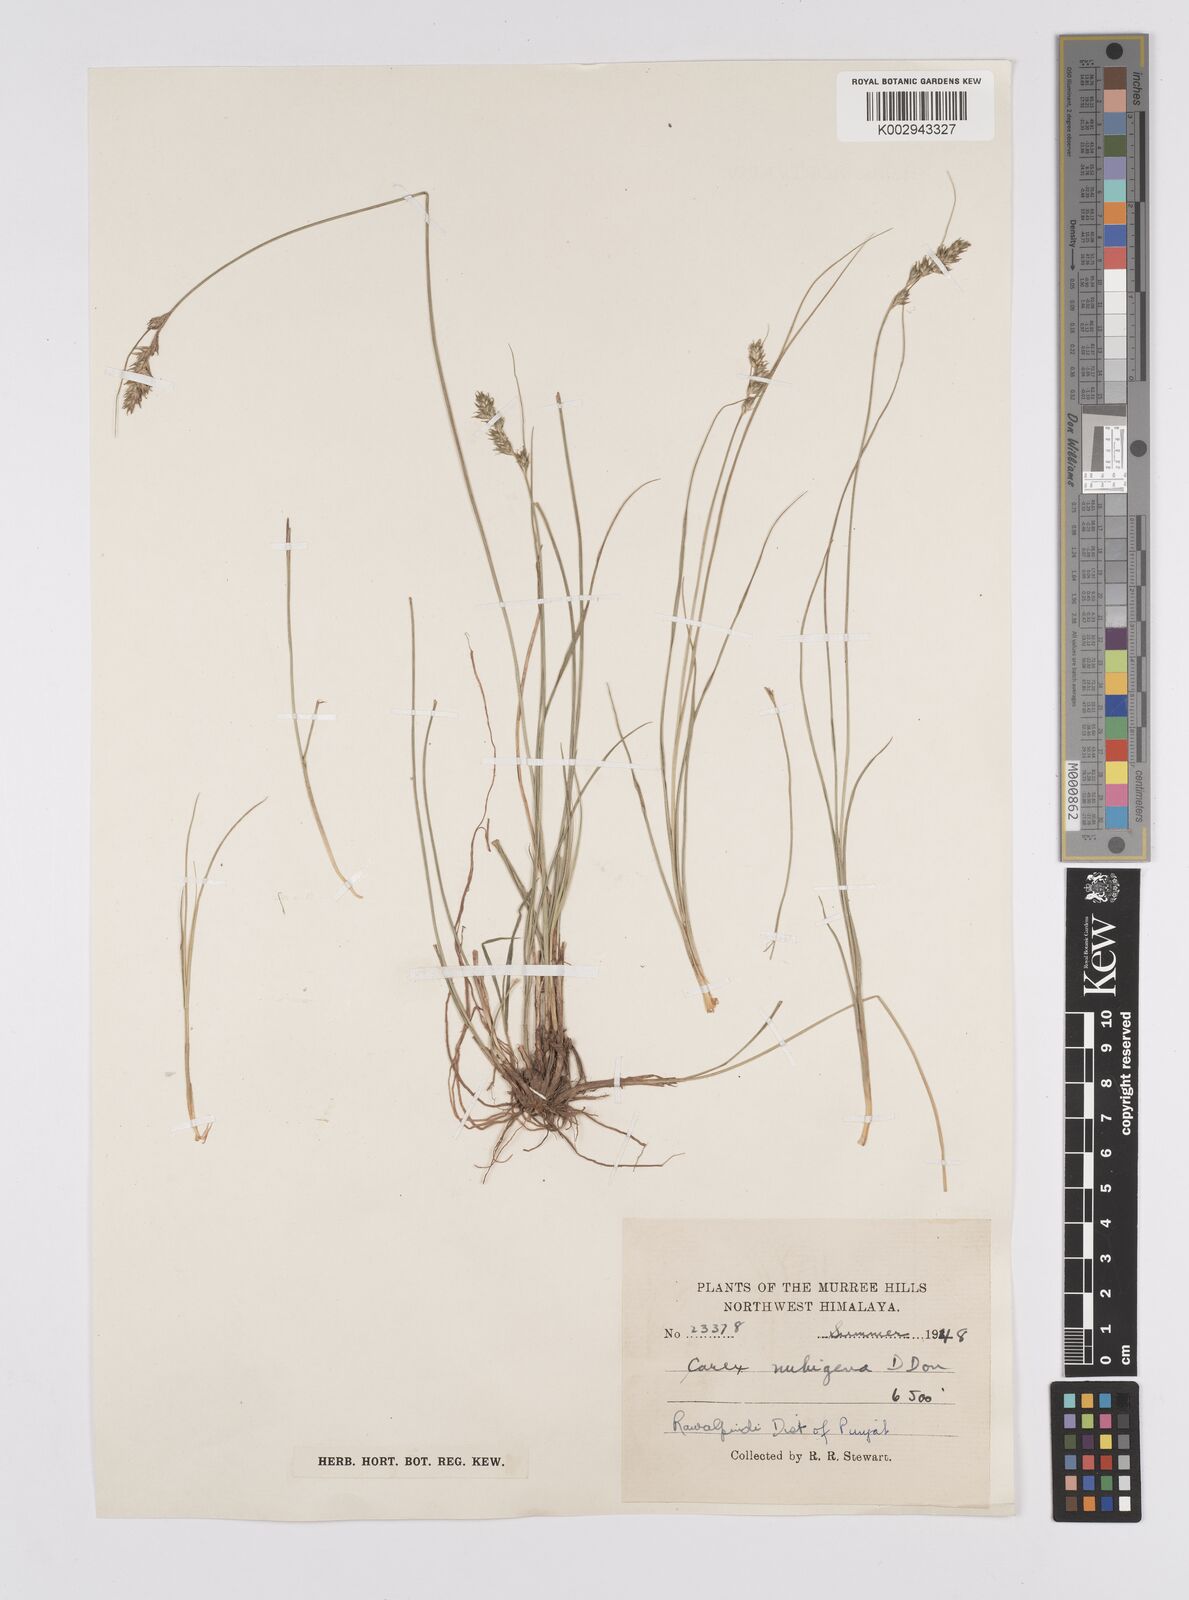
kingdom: Plantae
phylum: Tracheophyta
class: Liliopsida
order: Poales
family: Cyperaceae
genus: Carex
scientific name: Carex nubigena
